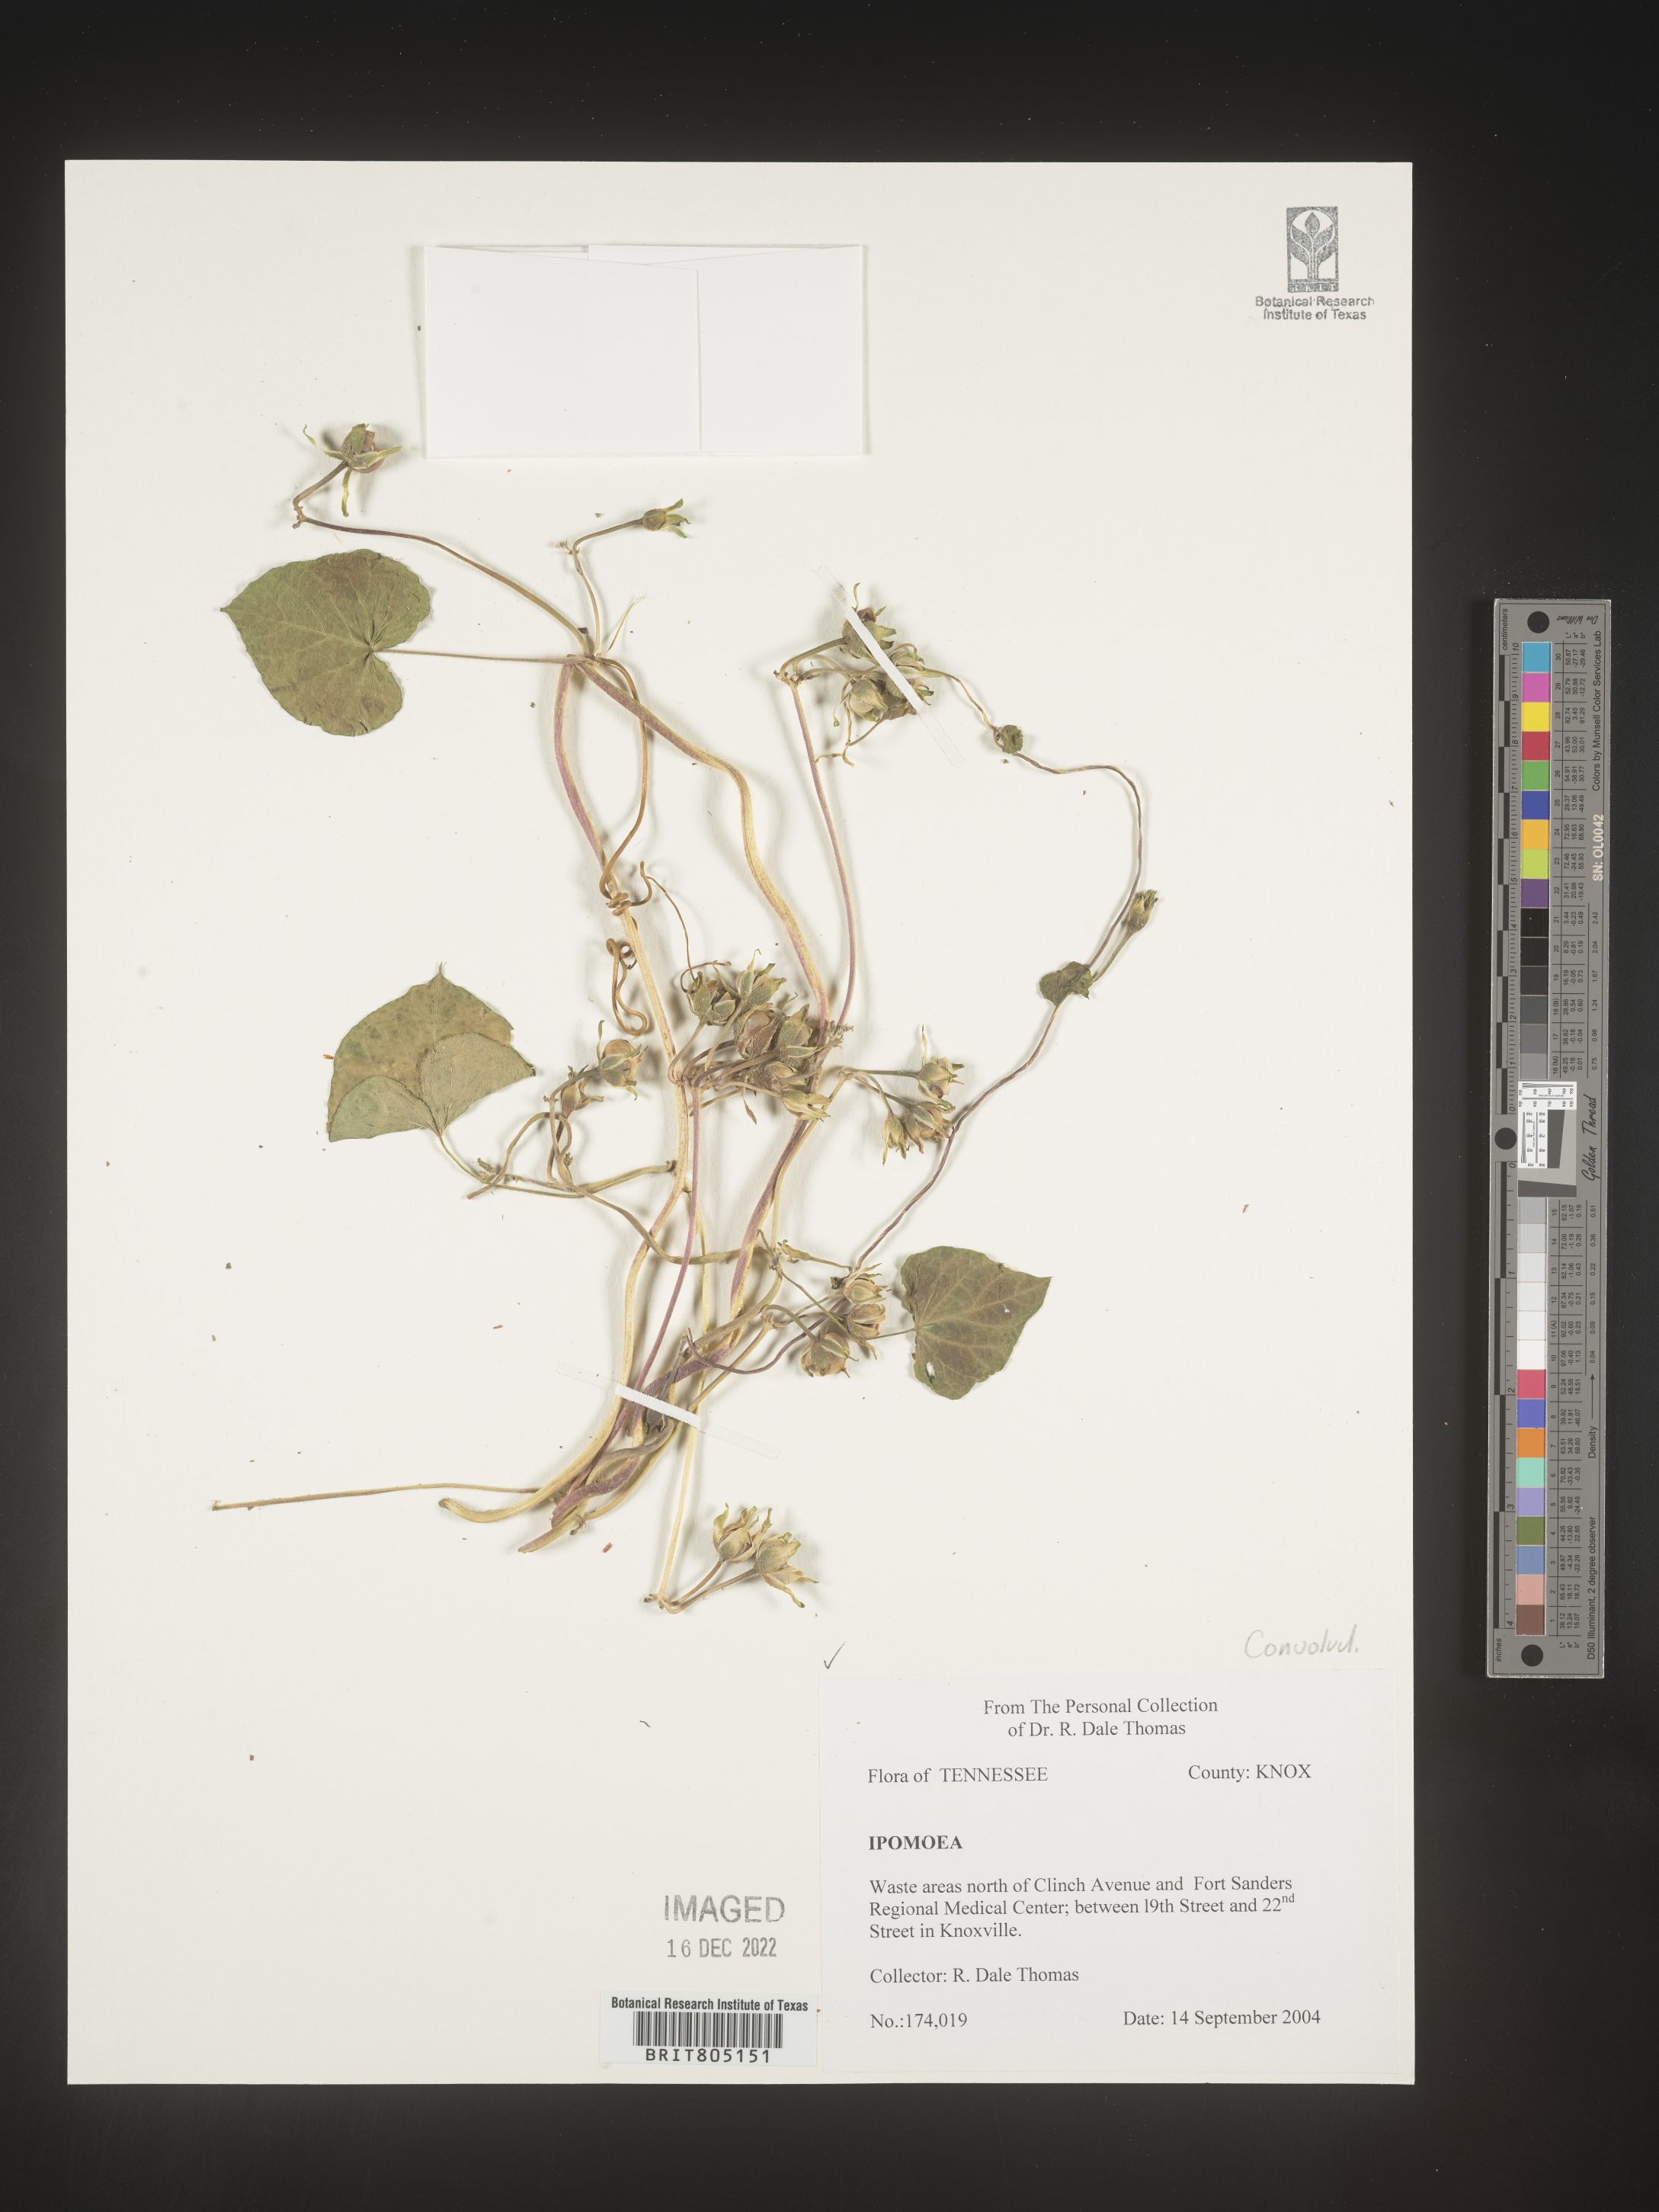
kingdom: Plantae
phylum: Tracheophyta
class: Magnoliopsida
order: Solanales
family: Convolvulaceae
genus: Ipomoea
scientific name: Ipomoea
